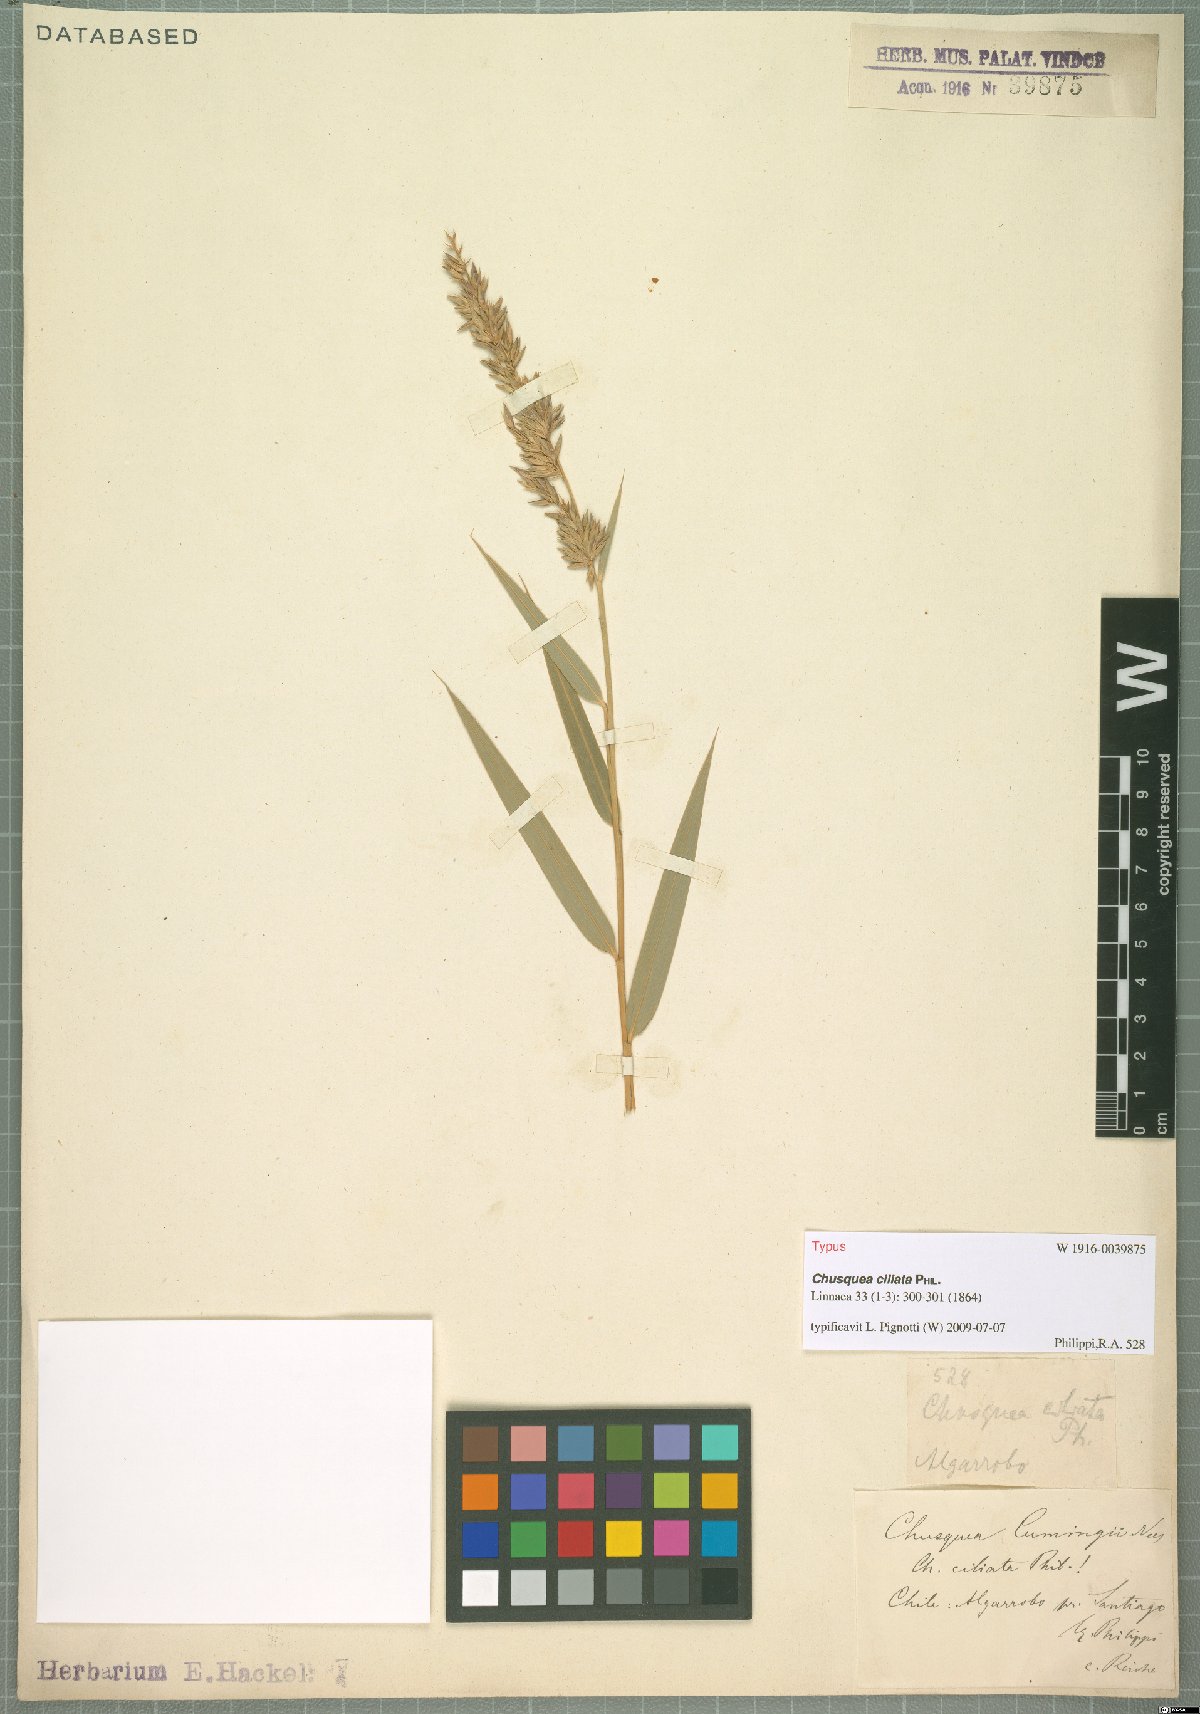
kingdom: Plantae
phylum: Tracheophyta
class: Liliopsida
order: Poales
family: Poaceae
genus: Chusquea
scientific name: Chusquea ciliata
